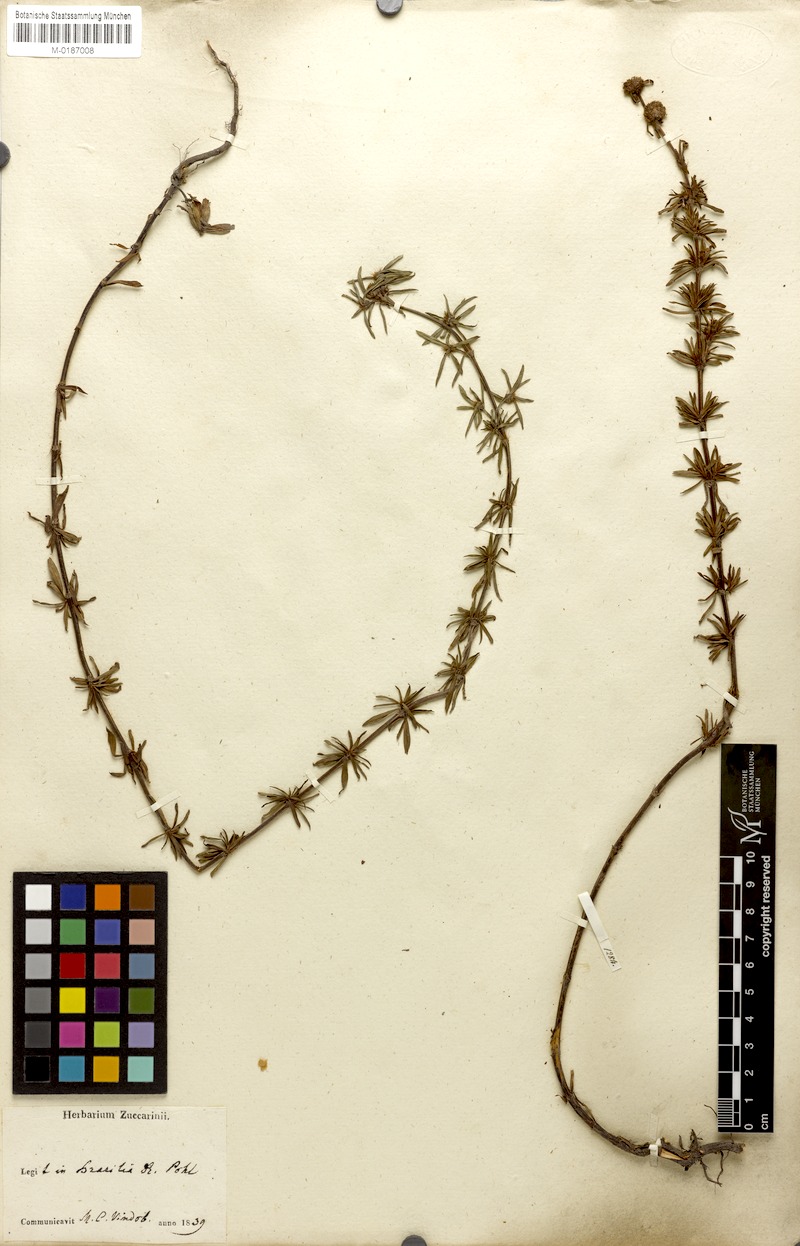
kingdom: Plantae
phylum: Tracheophyta
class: Magnoliopsida
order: Gentianales
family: Rubiaceae
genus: Spermacoce
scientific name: Spermacoce verticillata
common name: Shrubby false buttonweed
